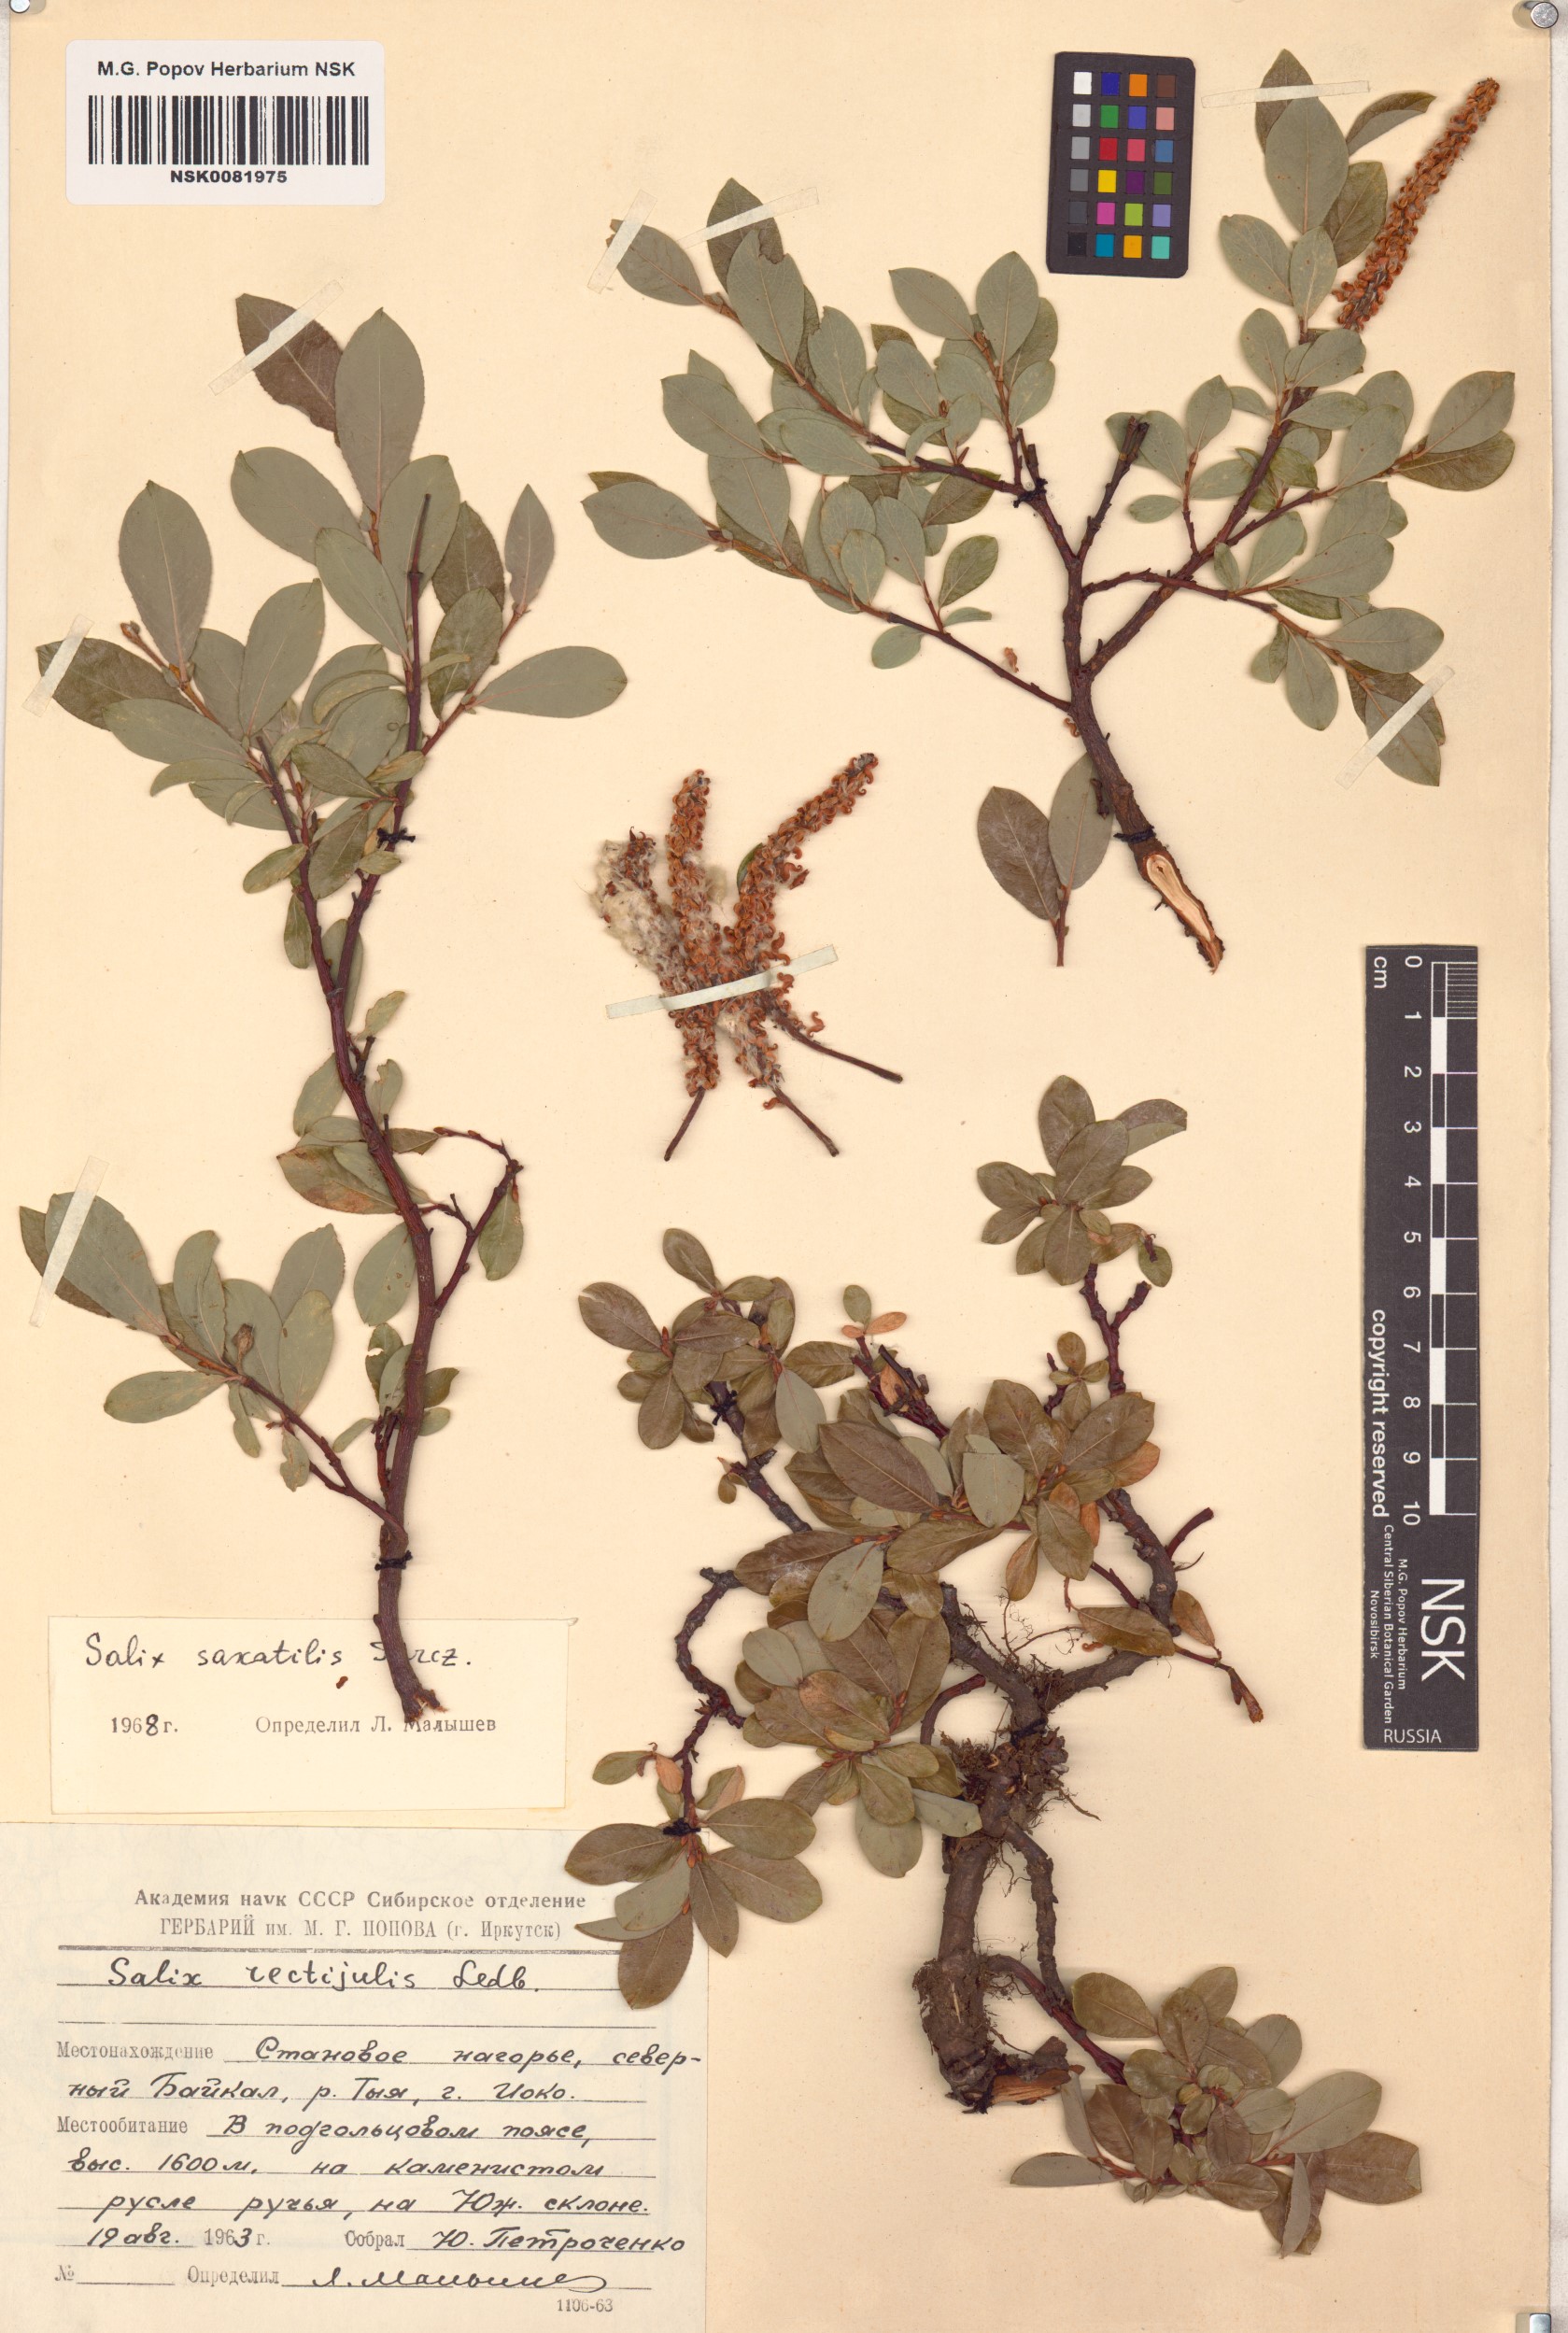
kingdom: Plantae
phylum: Tracheophyta
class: Magnoliopsida
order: Malpighiales
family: Salicaceae
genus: Salix
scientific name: Salix saxatilis
